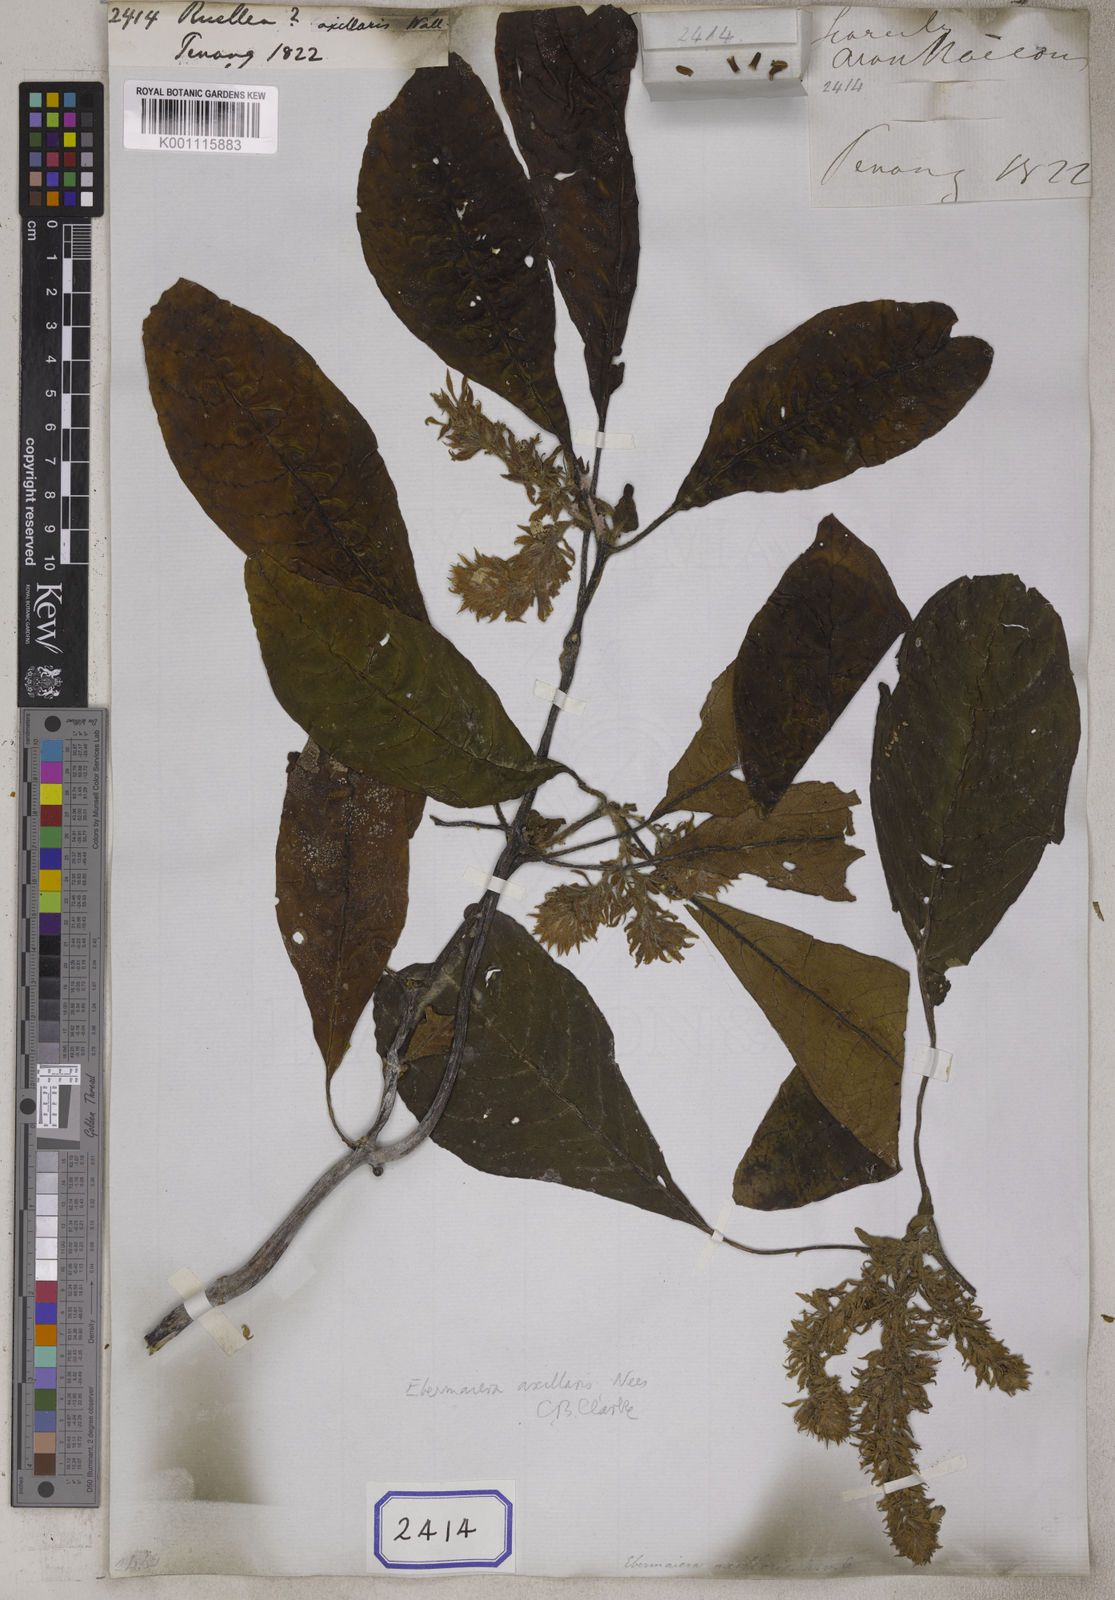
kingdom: Plantae
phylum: Tracheophyta
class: Magnoliopsida
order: Lamiales
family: Acanthaceae
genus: Staurogyne
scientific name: Staurogyne comosa
